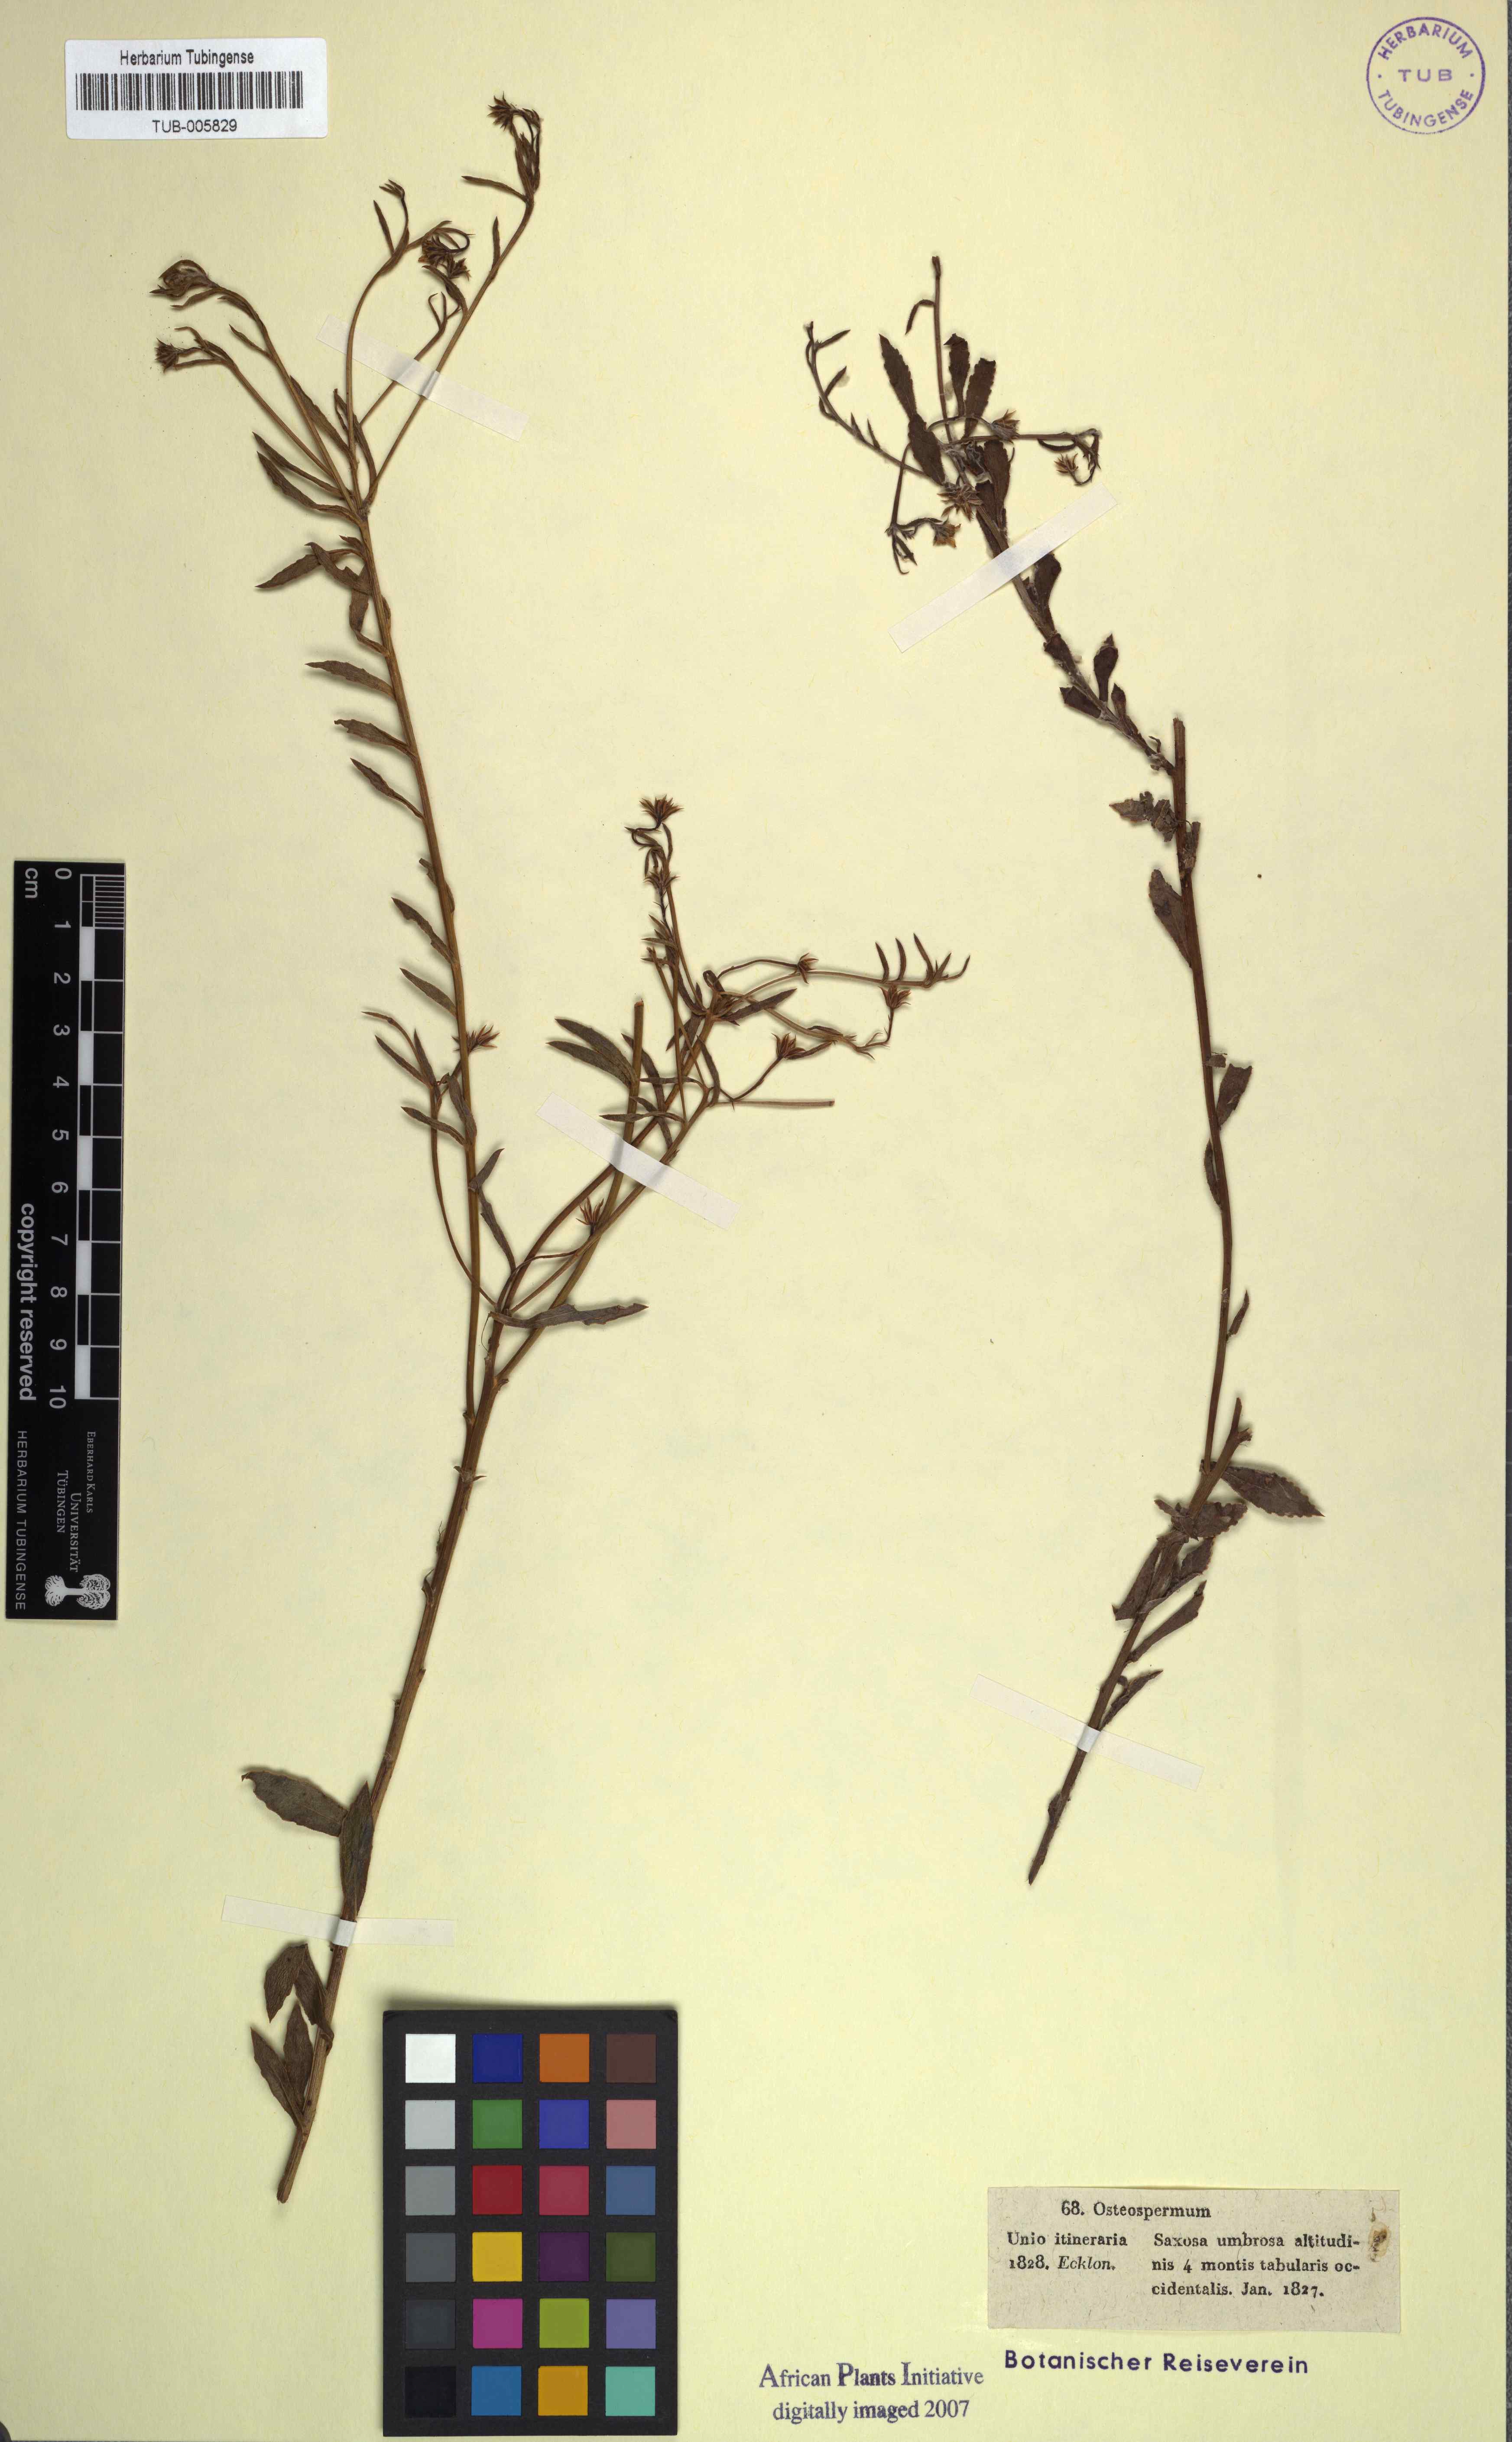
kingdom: Plantae
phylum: Tracheophyta
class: Magnoliopsida
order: Asterales
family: Asteraceae
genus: Osteospermum
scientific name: Osteospermum ciliatum
